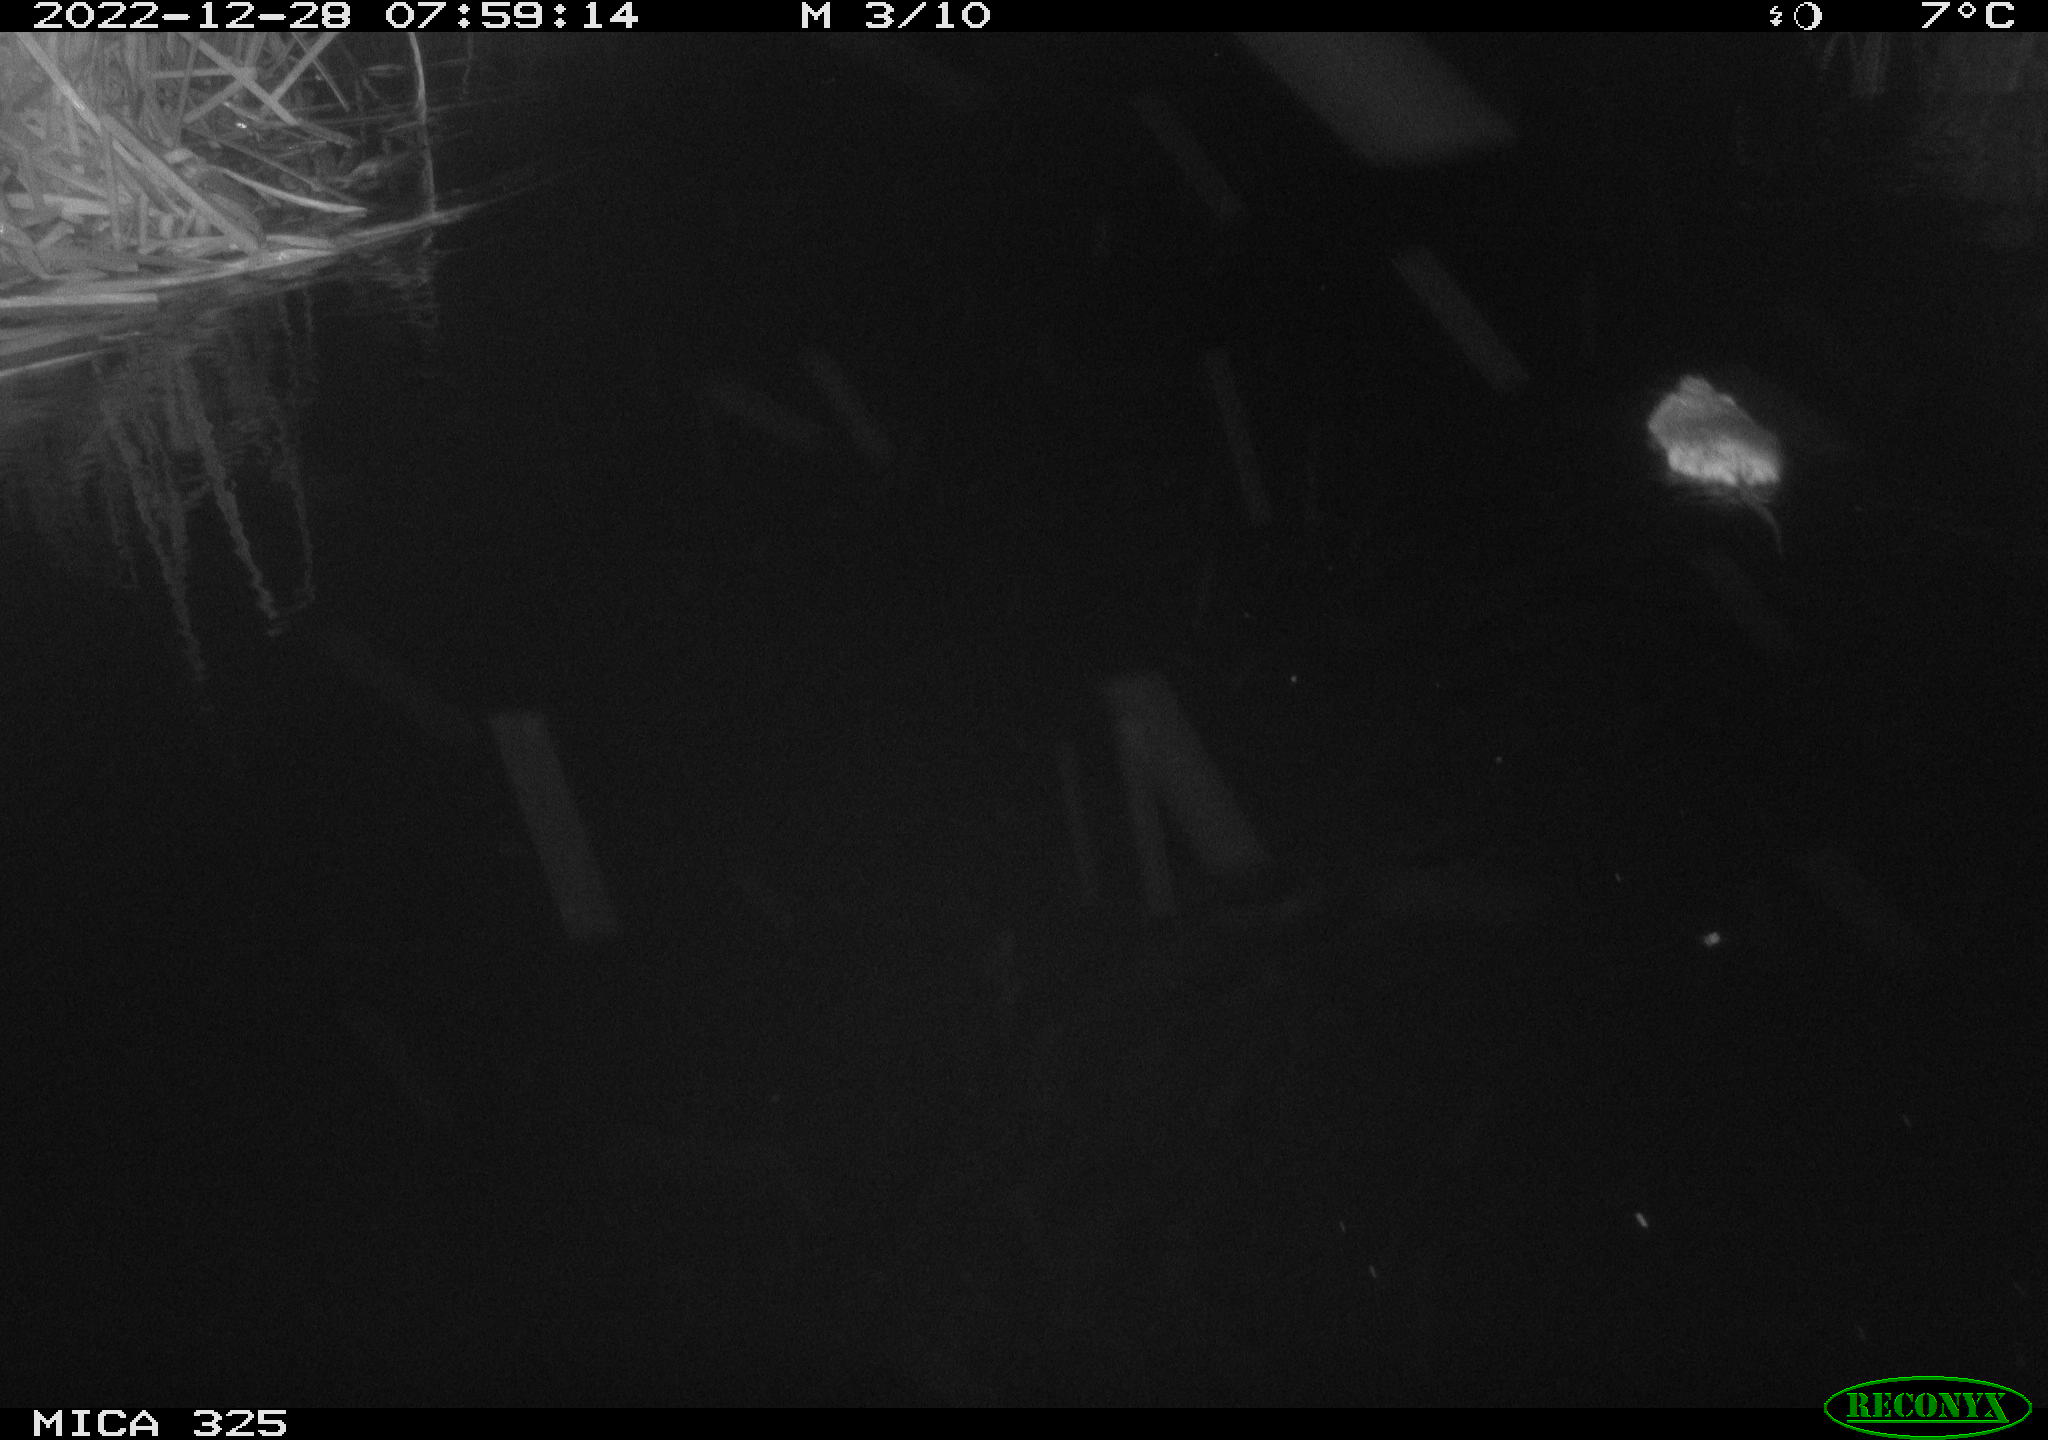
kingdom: Animalia
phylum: Chordata
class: Mammalia
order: Rodentia
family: Cricetidae
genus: Ondatra
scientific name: Ondatra zibethicus
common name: Muskrat
